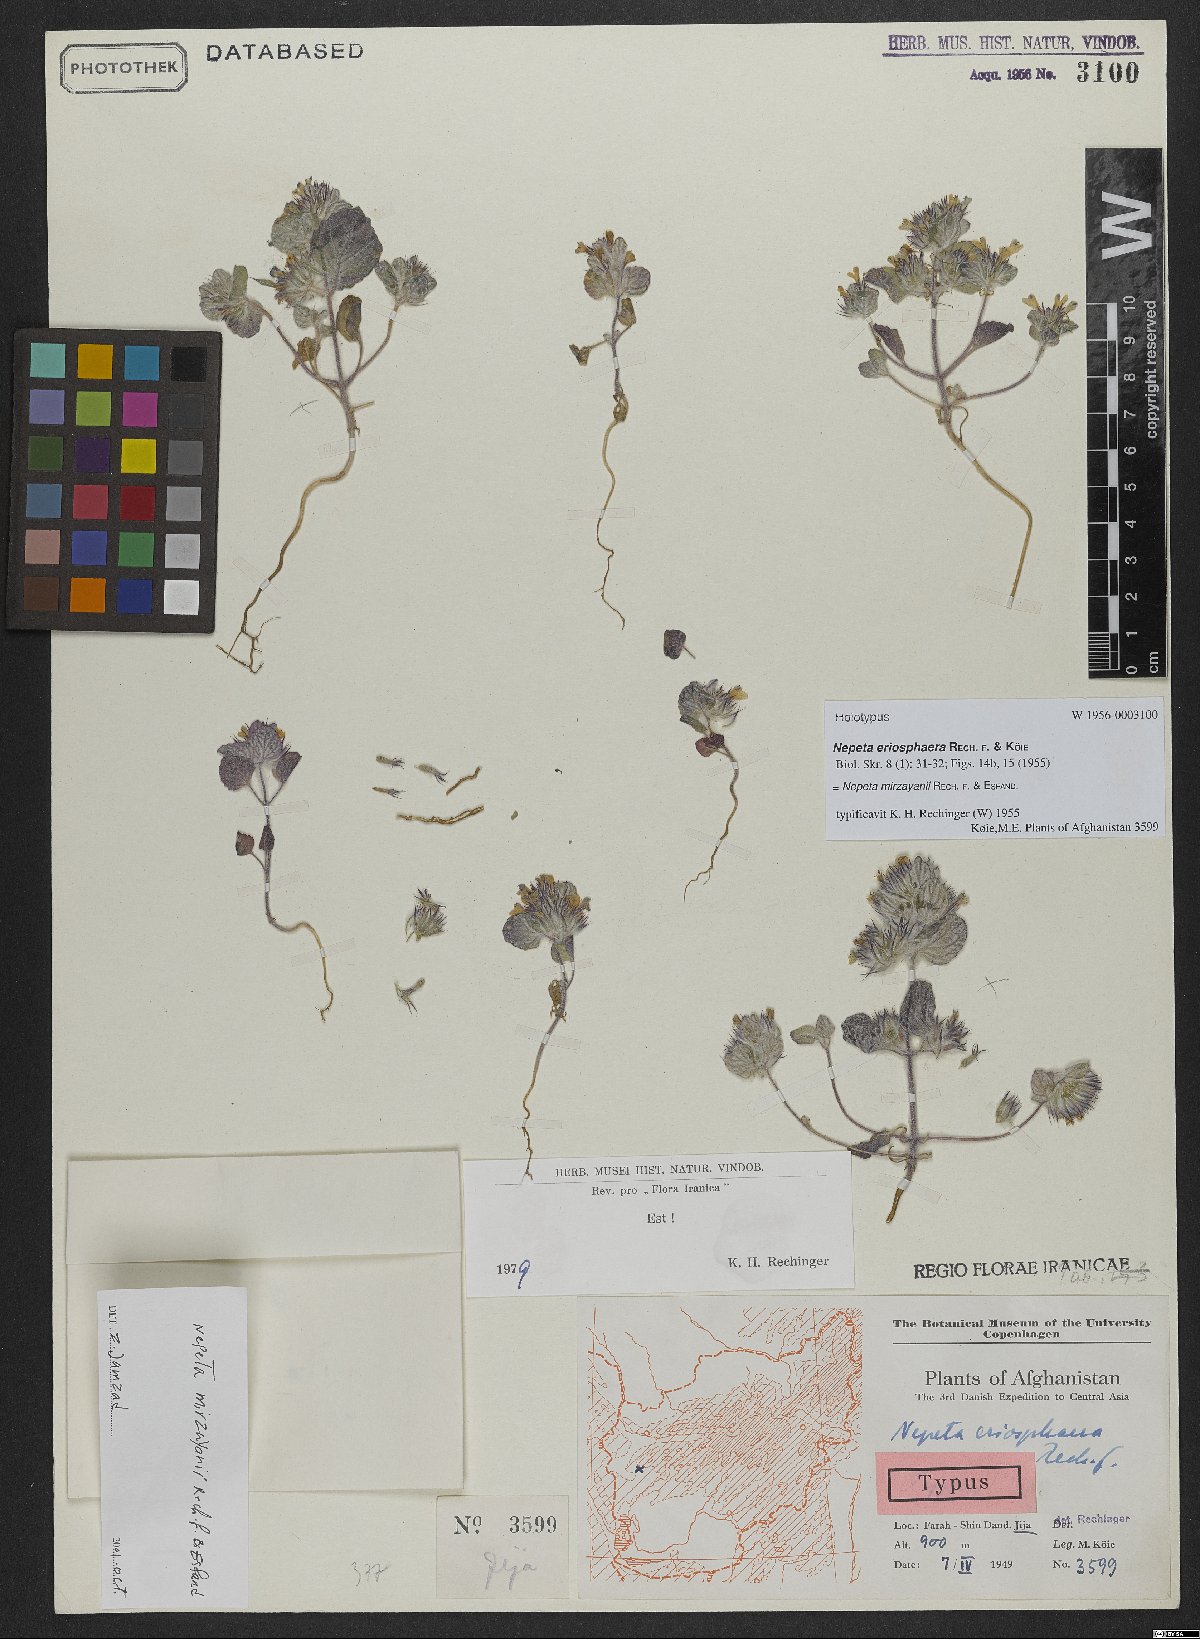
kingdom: Plantae
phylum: Tracheophyta
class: Magnoliopsida
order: Lamiales
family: Lamiaceae
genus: Nepeta
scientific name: Nepeta mirzayanii
